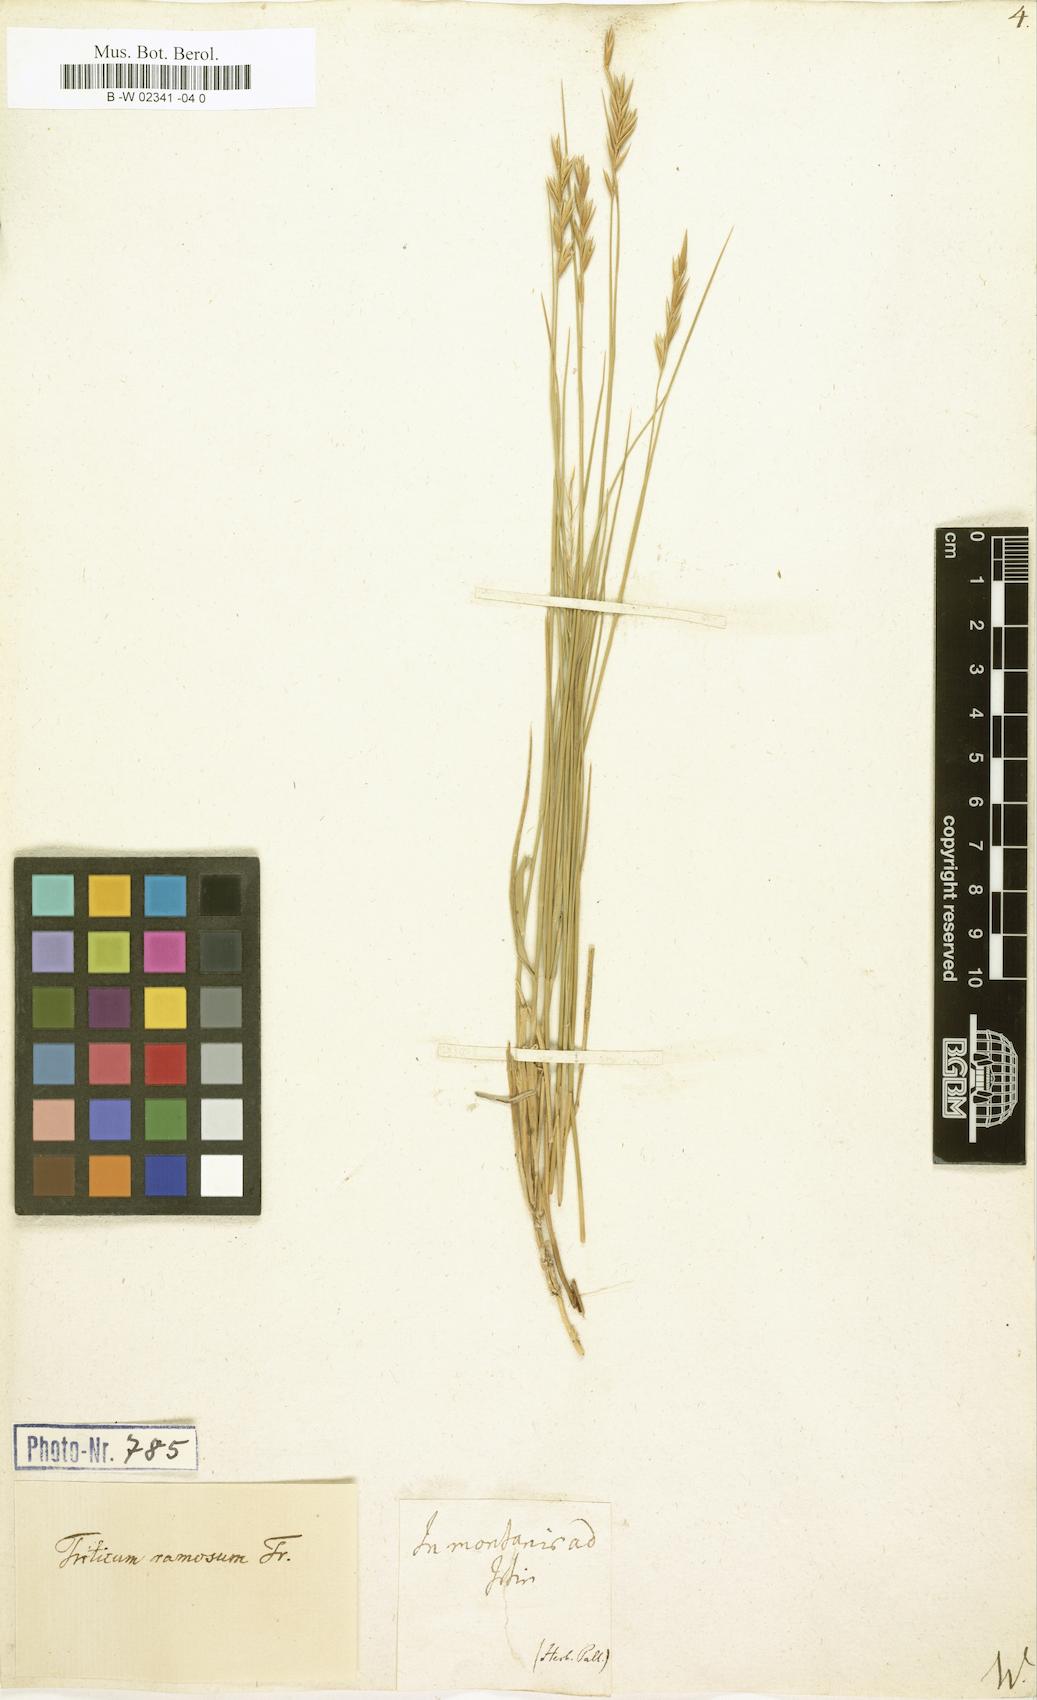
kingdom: Plantae
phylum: Tracheophyta
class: Liliopsida
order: Poales
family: Poaceae
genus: Agropyron
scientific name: Agropyron fragile
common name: Siberian wheatgrass
